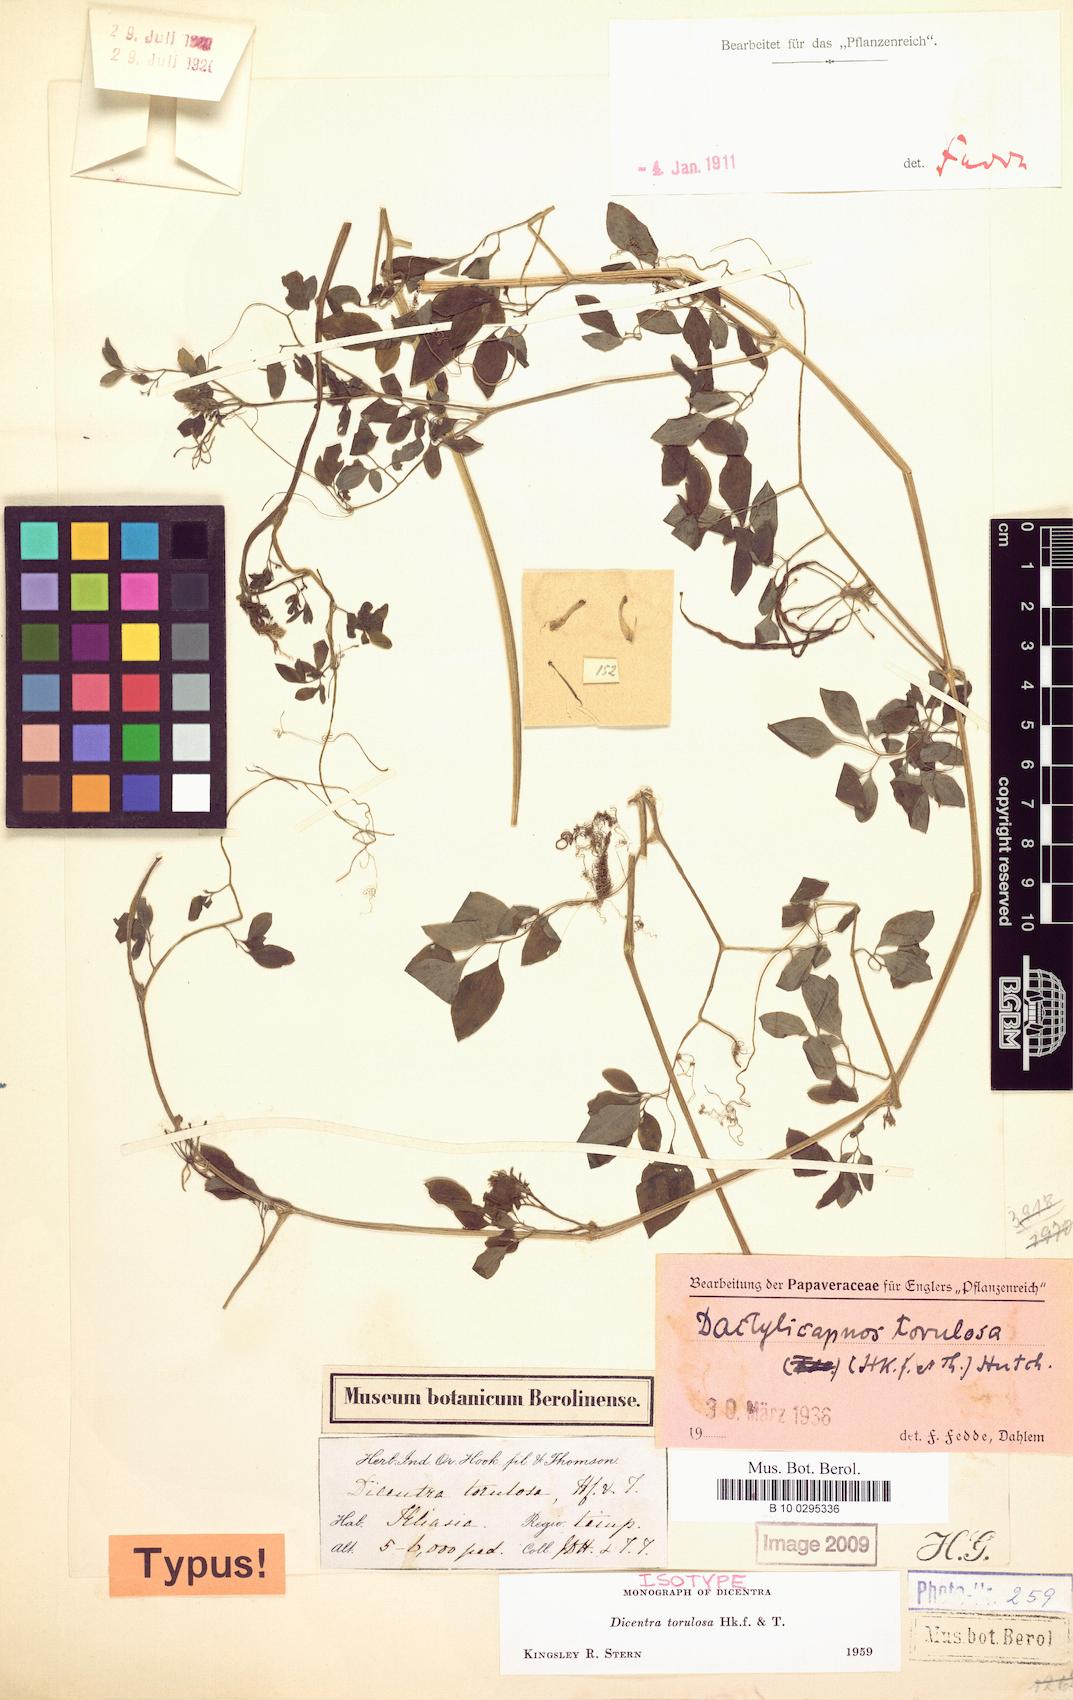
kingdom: Plantae
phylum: Tracheophyta
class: Magnoliopsida
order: Ranunculales
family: Papaveraceae
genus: Dactylicapnos
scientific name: Dactylicapnos torulosa
